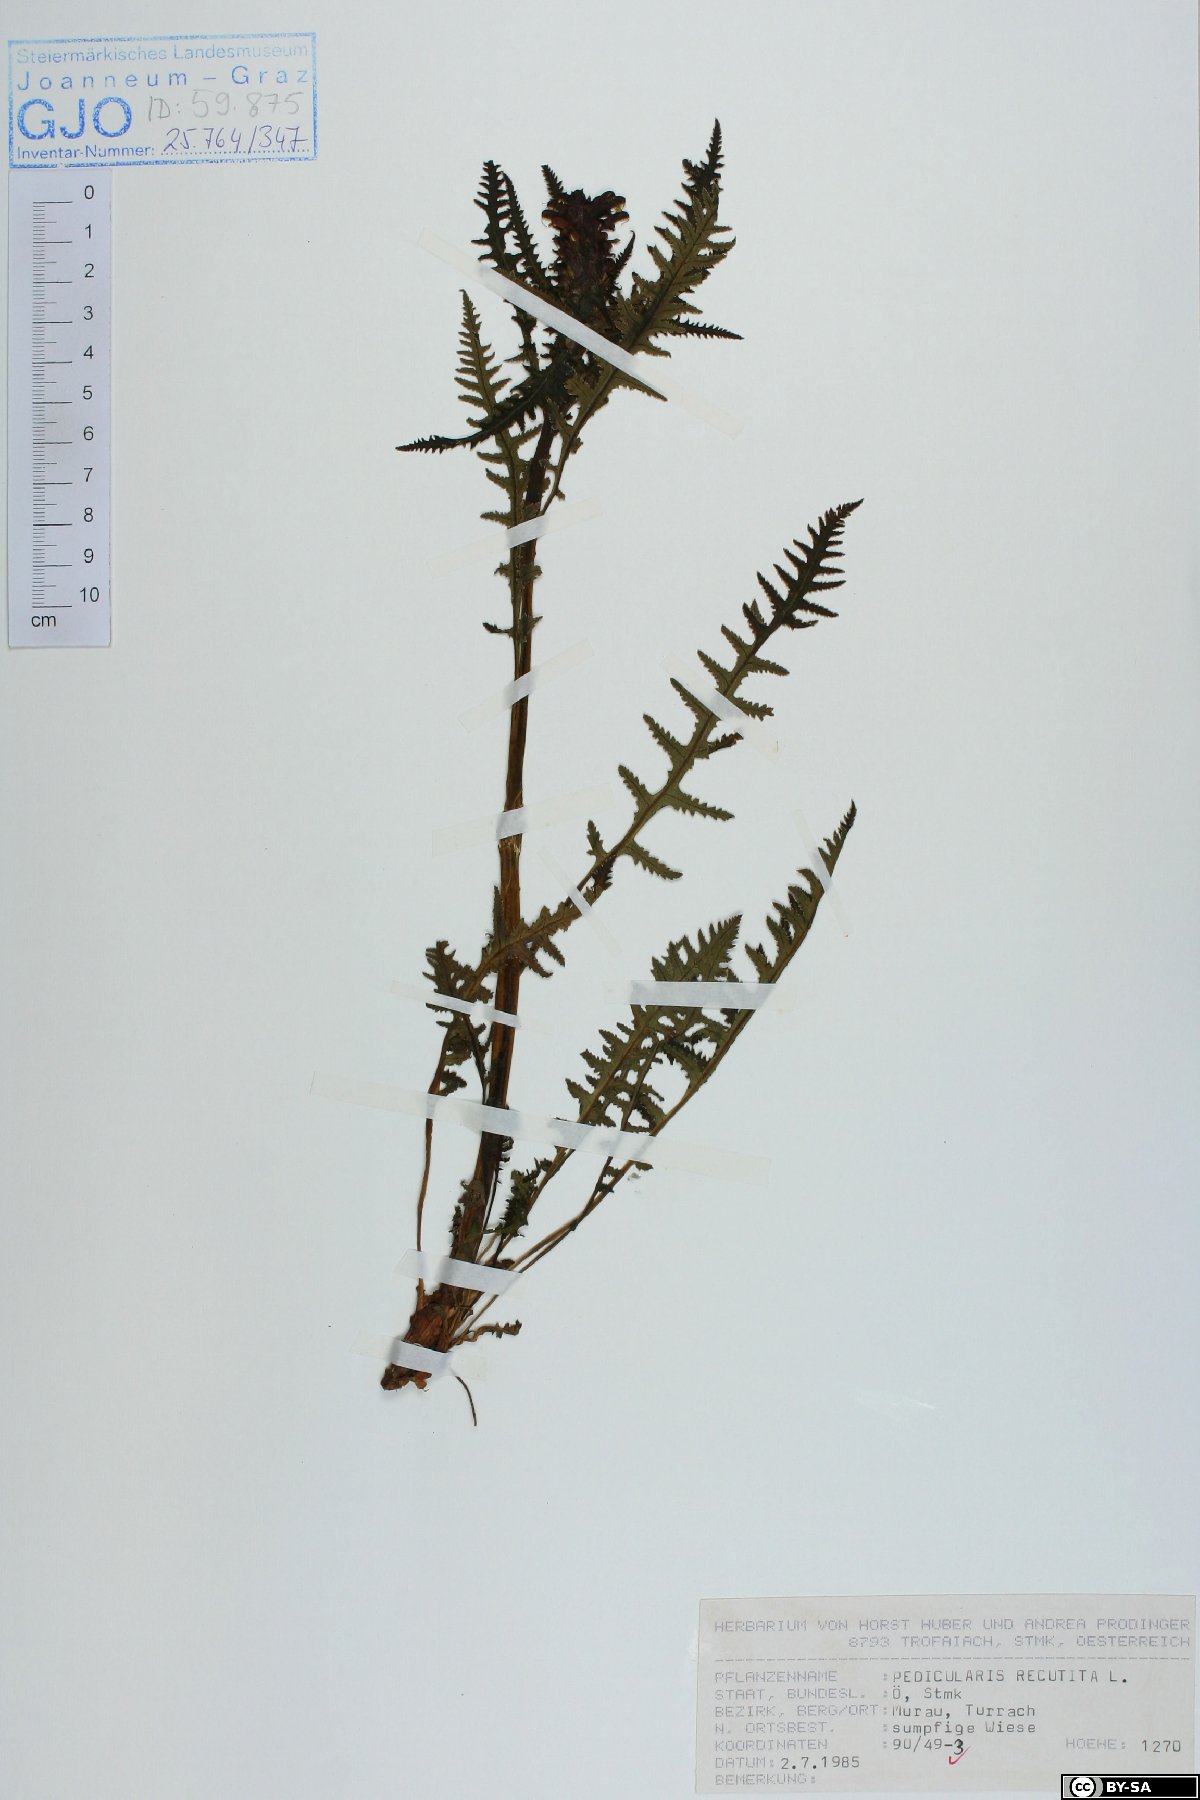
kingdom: Plantae
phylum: Tracheophyta
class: Magnoliopsida
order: Lamiales
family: Orobanchaceae
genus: Pedicularis
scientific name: Pedicularis recutita
